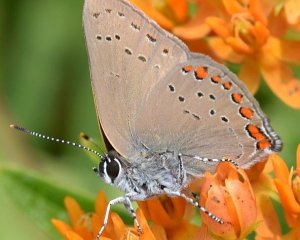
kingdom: Animalia
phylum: Arthropoda
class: Insecta
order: Lepidoptera
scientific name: Lepidoptera
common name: Butterflies
